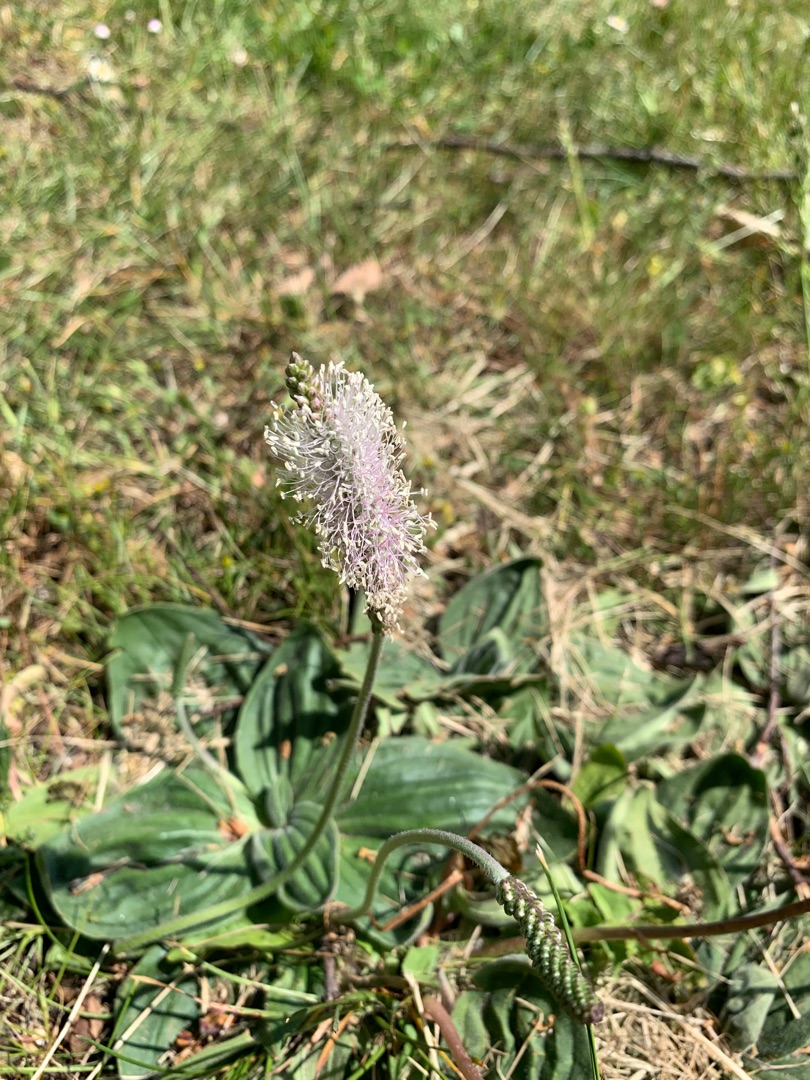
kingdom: Plantae
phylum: Tracheophyta
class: Magnoliopsida
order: Lamiales
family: Plantaginaceae
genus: Plantago
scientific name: Plantago media
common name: Dunet vejbred
